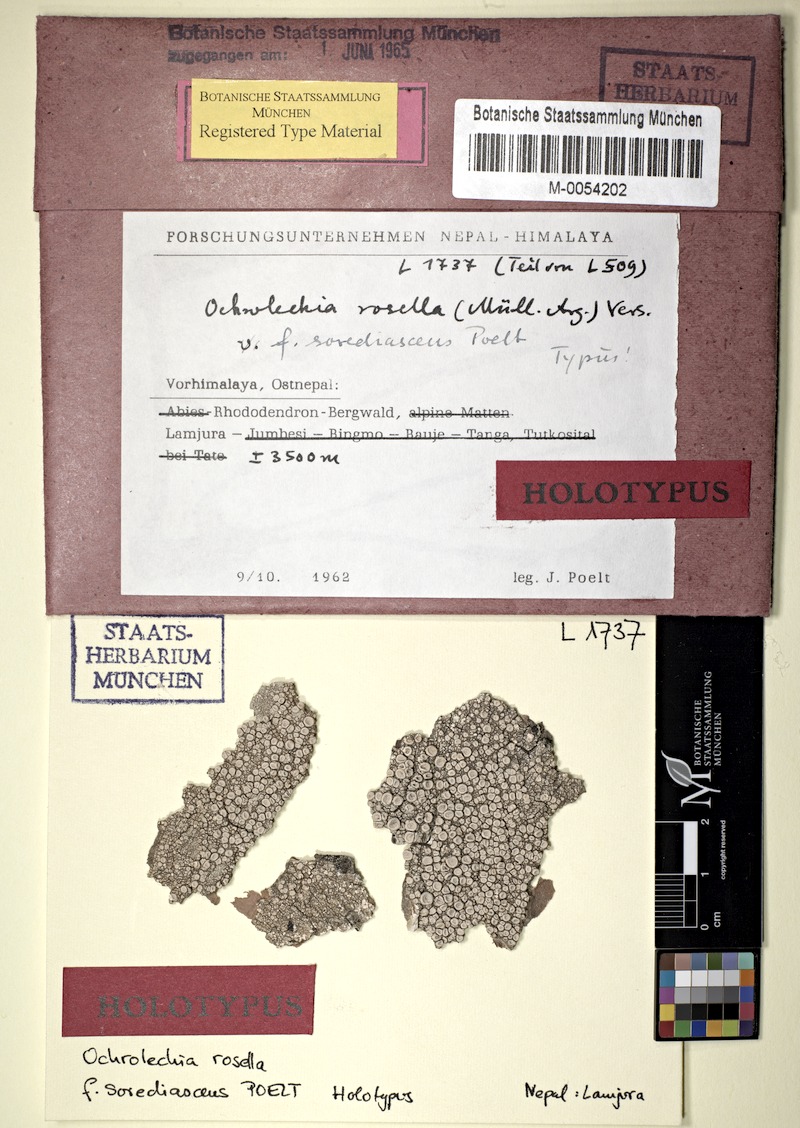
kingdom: Fungi
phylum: Ascomycota
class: Lecanoromycetes
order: Pertusariales
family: Ochrolechiaceae
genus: Ochrolechia
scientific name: Ochrolechia trochophora
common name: Rosy saucer lichen
